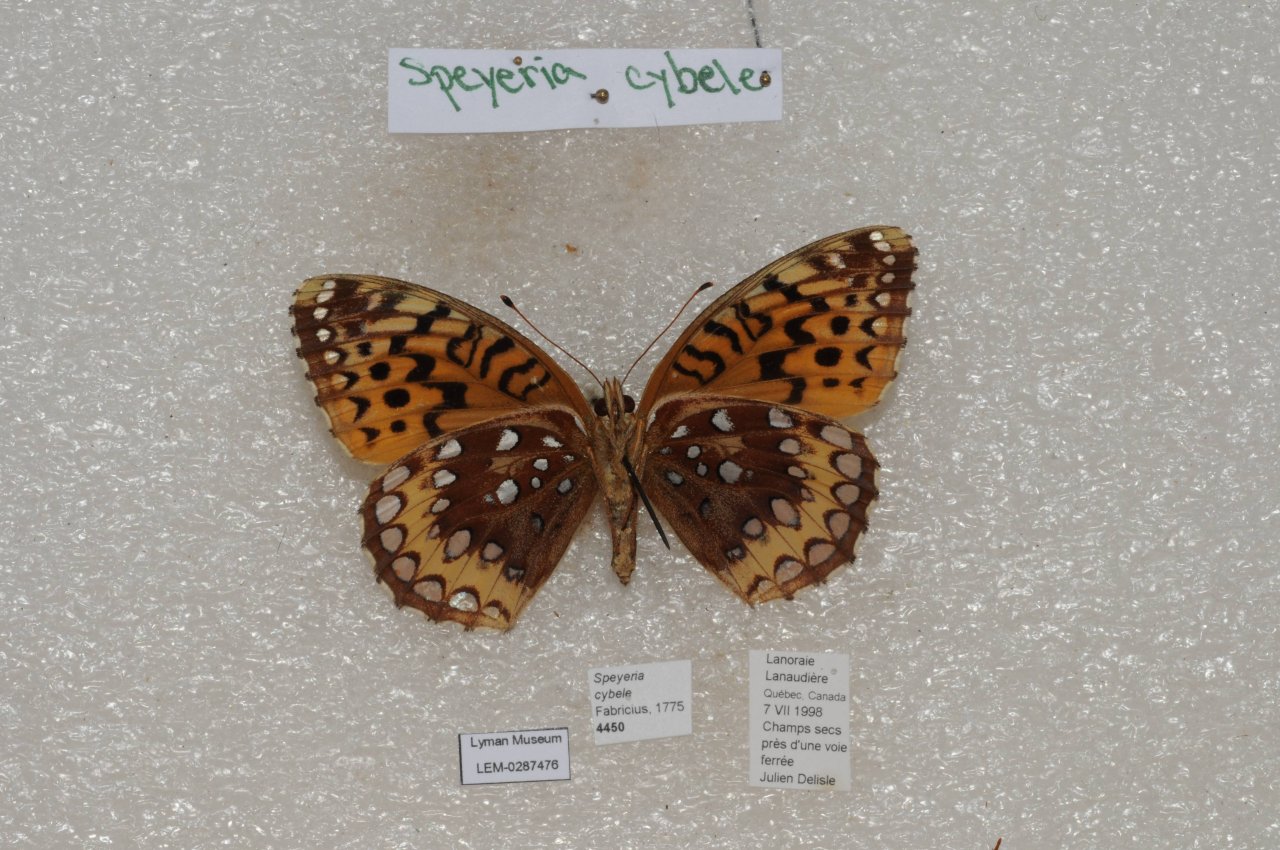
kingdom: Animalia
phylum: Arthropoda
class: Insecta
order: Lepidoptera
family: Nymphalidae
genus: Speyeria
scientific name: Speyeria cybele
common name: Great Spangled Fritillary
